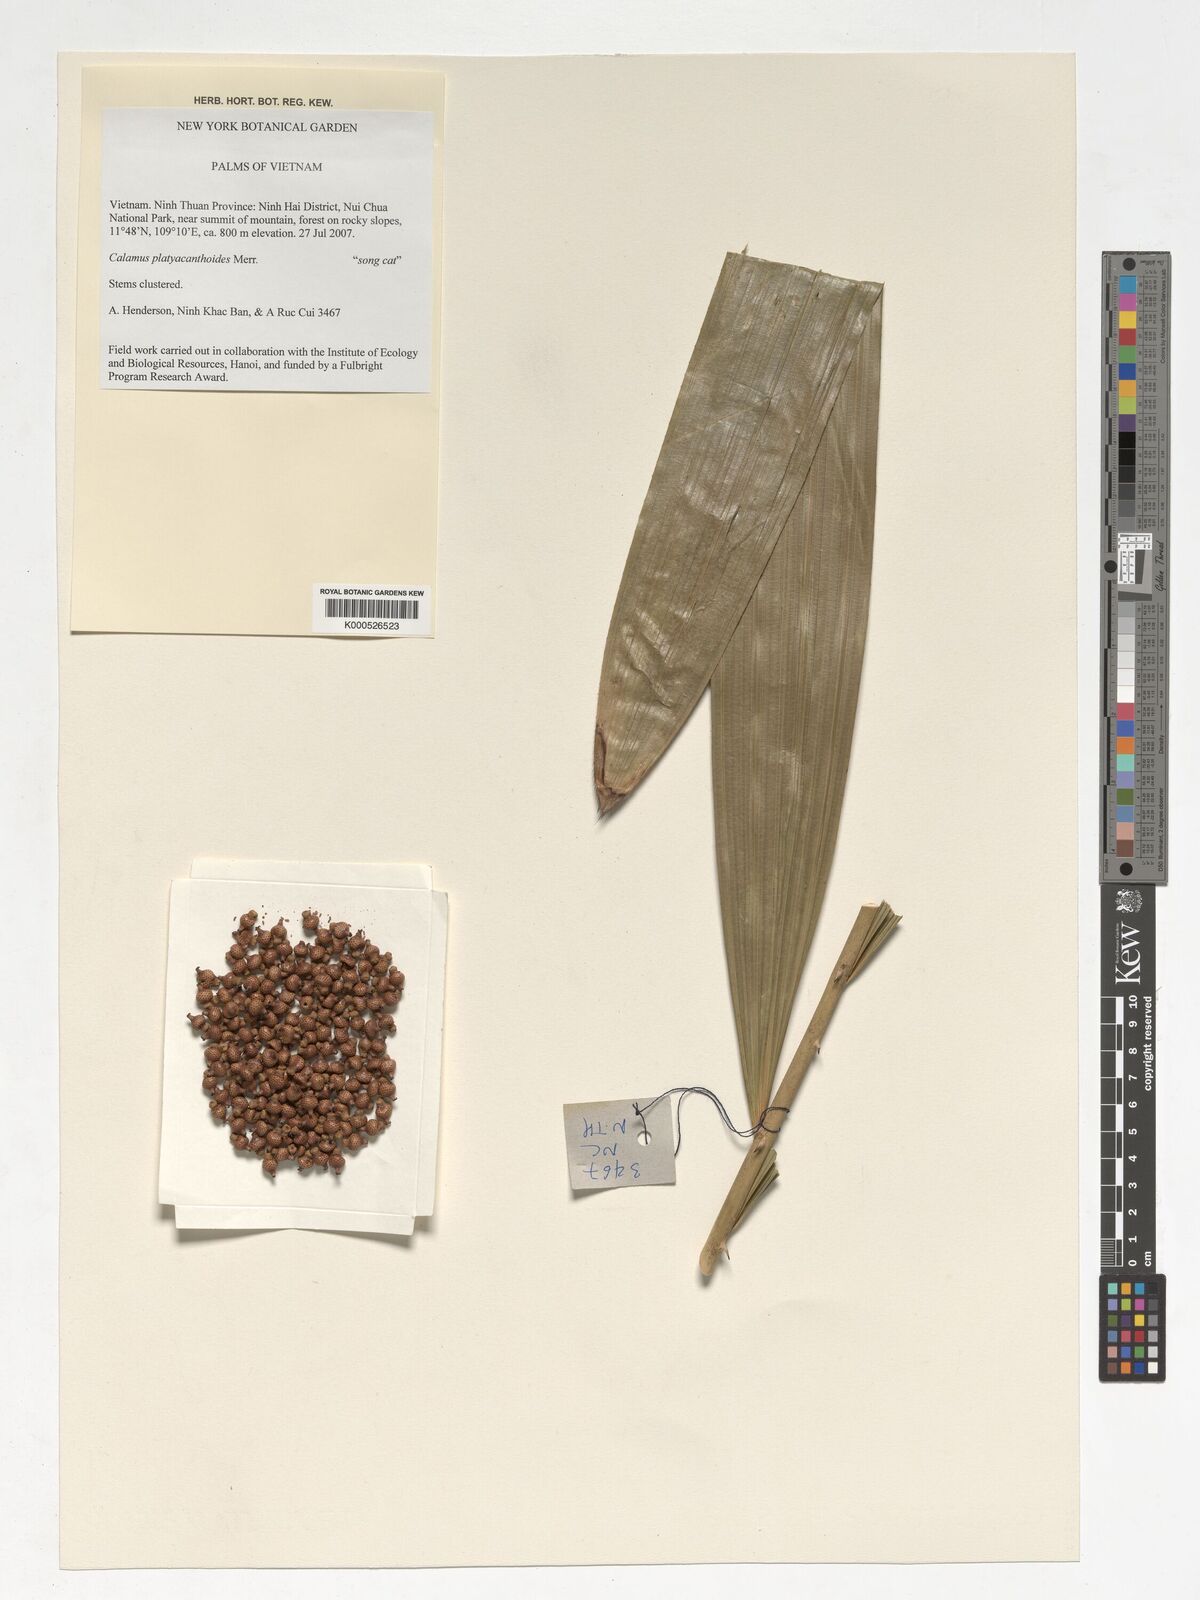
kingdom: Plantae
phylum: Tracheophyta
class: Liliopsida
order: Arecales
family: Arecaceae
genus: Calamus
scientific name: Calamus inermis
